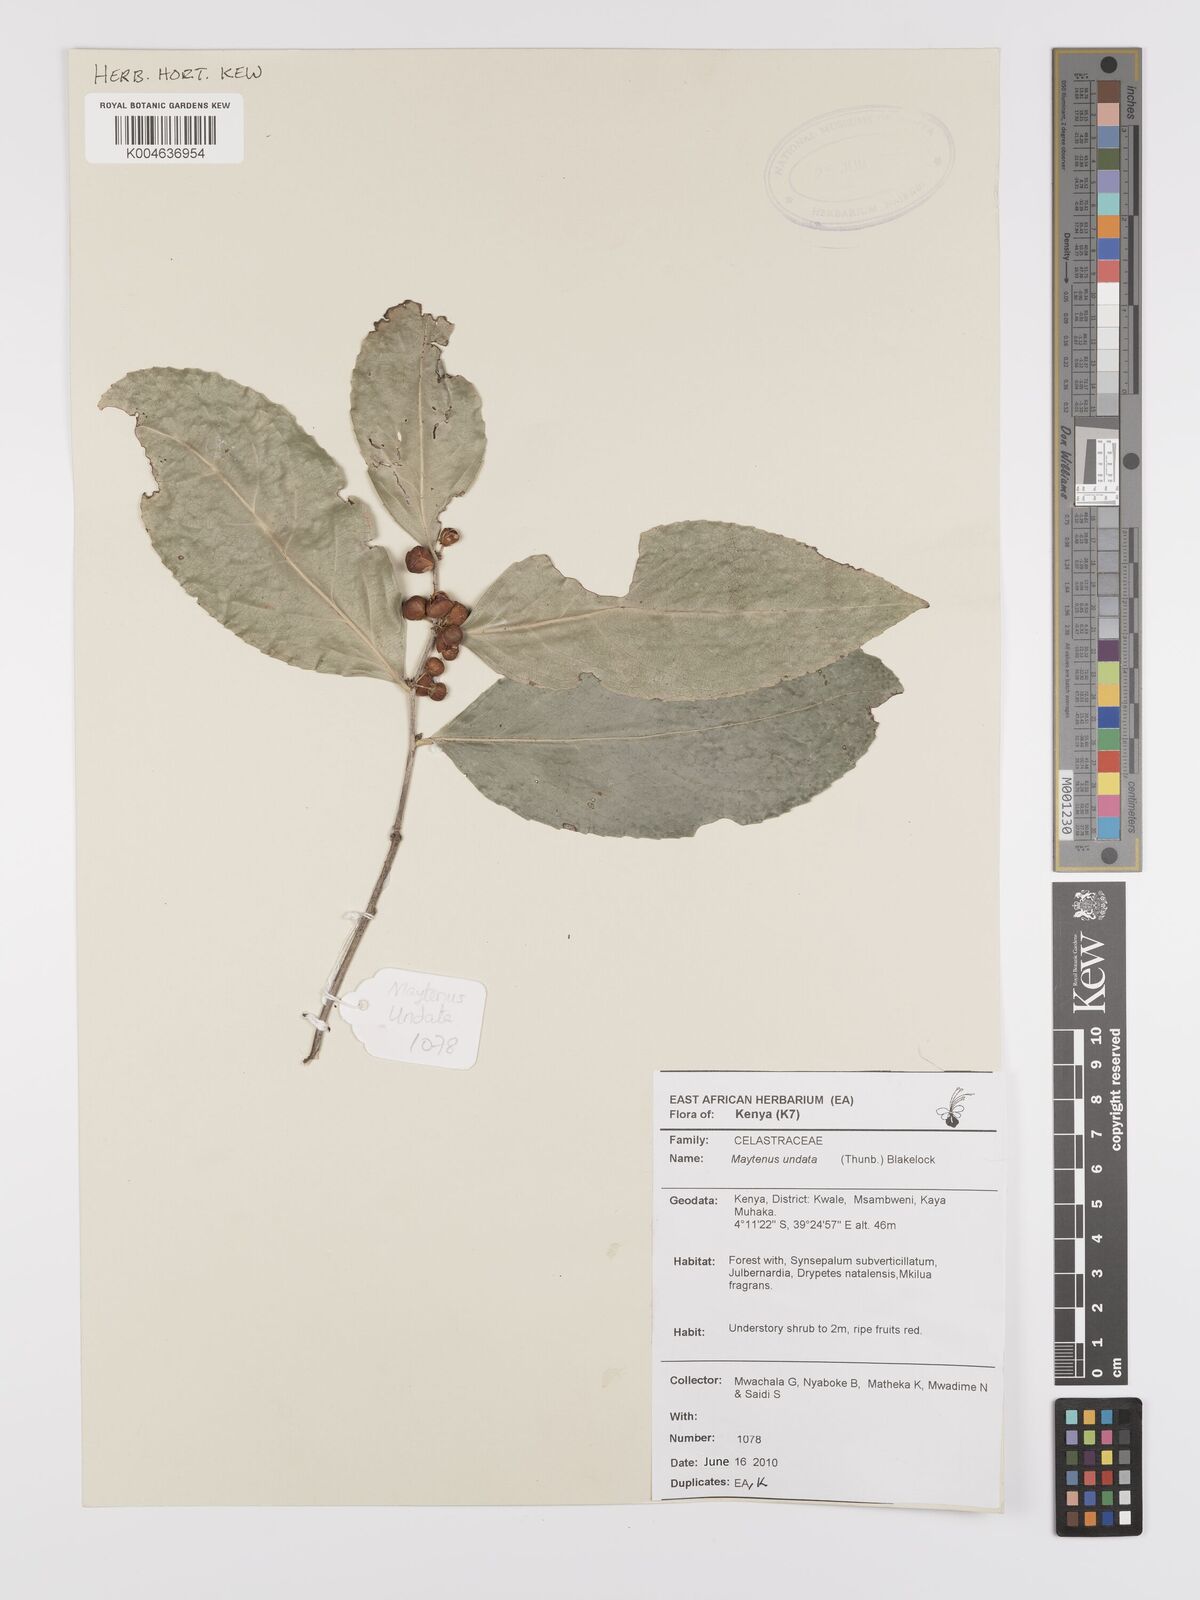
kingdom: Plantae
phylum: Tracheophyta
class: Magnoliopsida
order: Celastrales
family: Celastraceae
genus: Gymnosporia
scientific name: Gymnosporia undata
